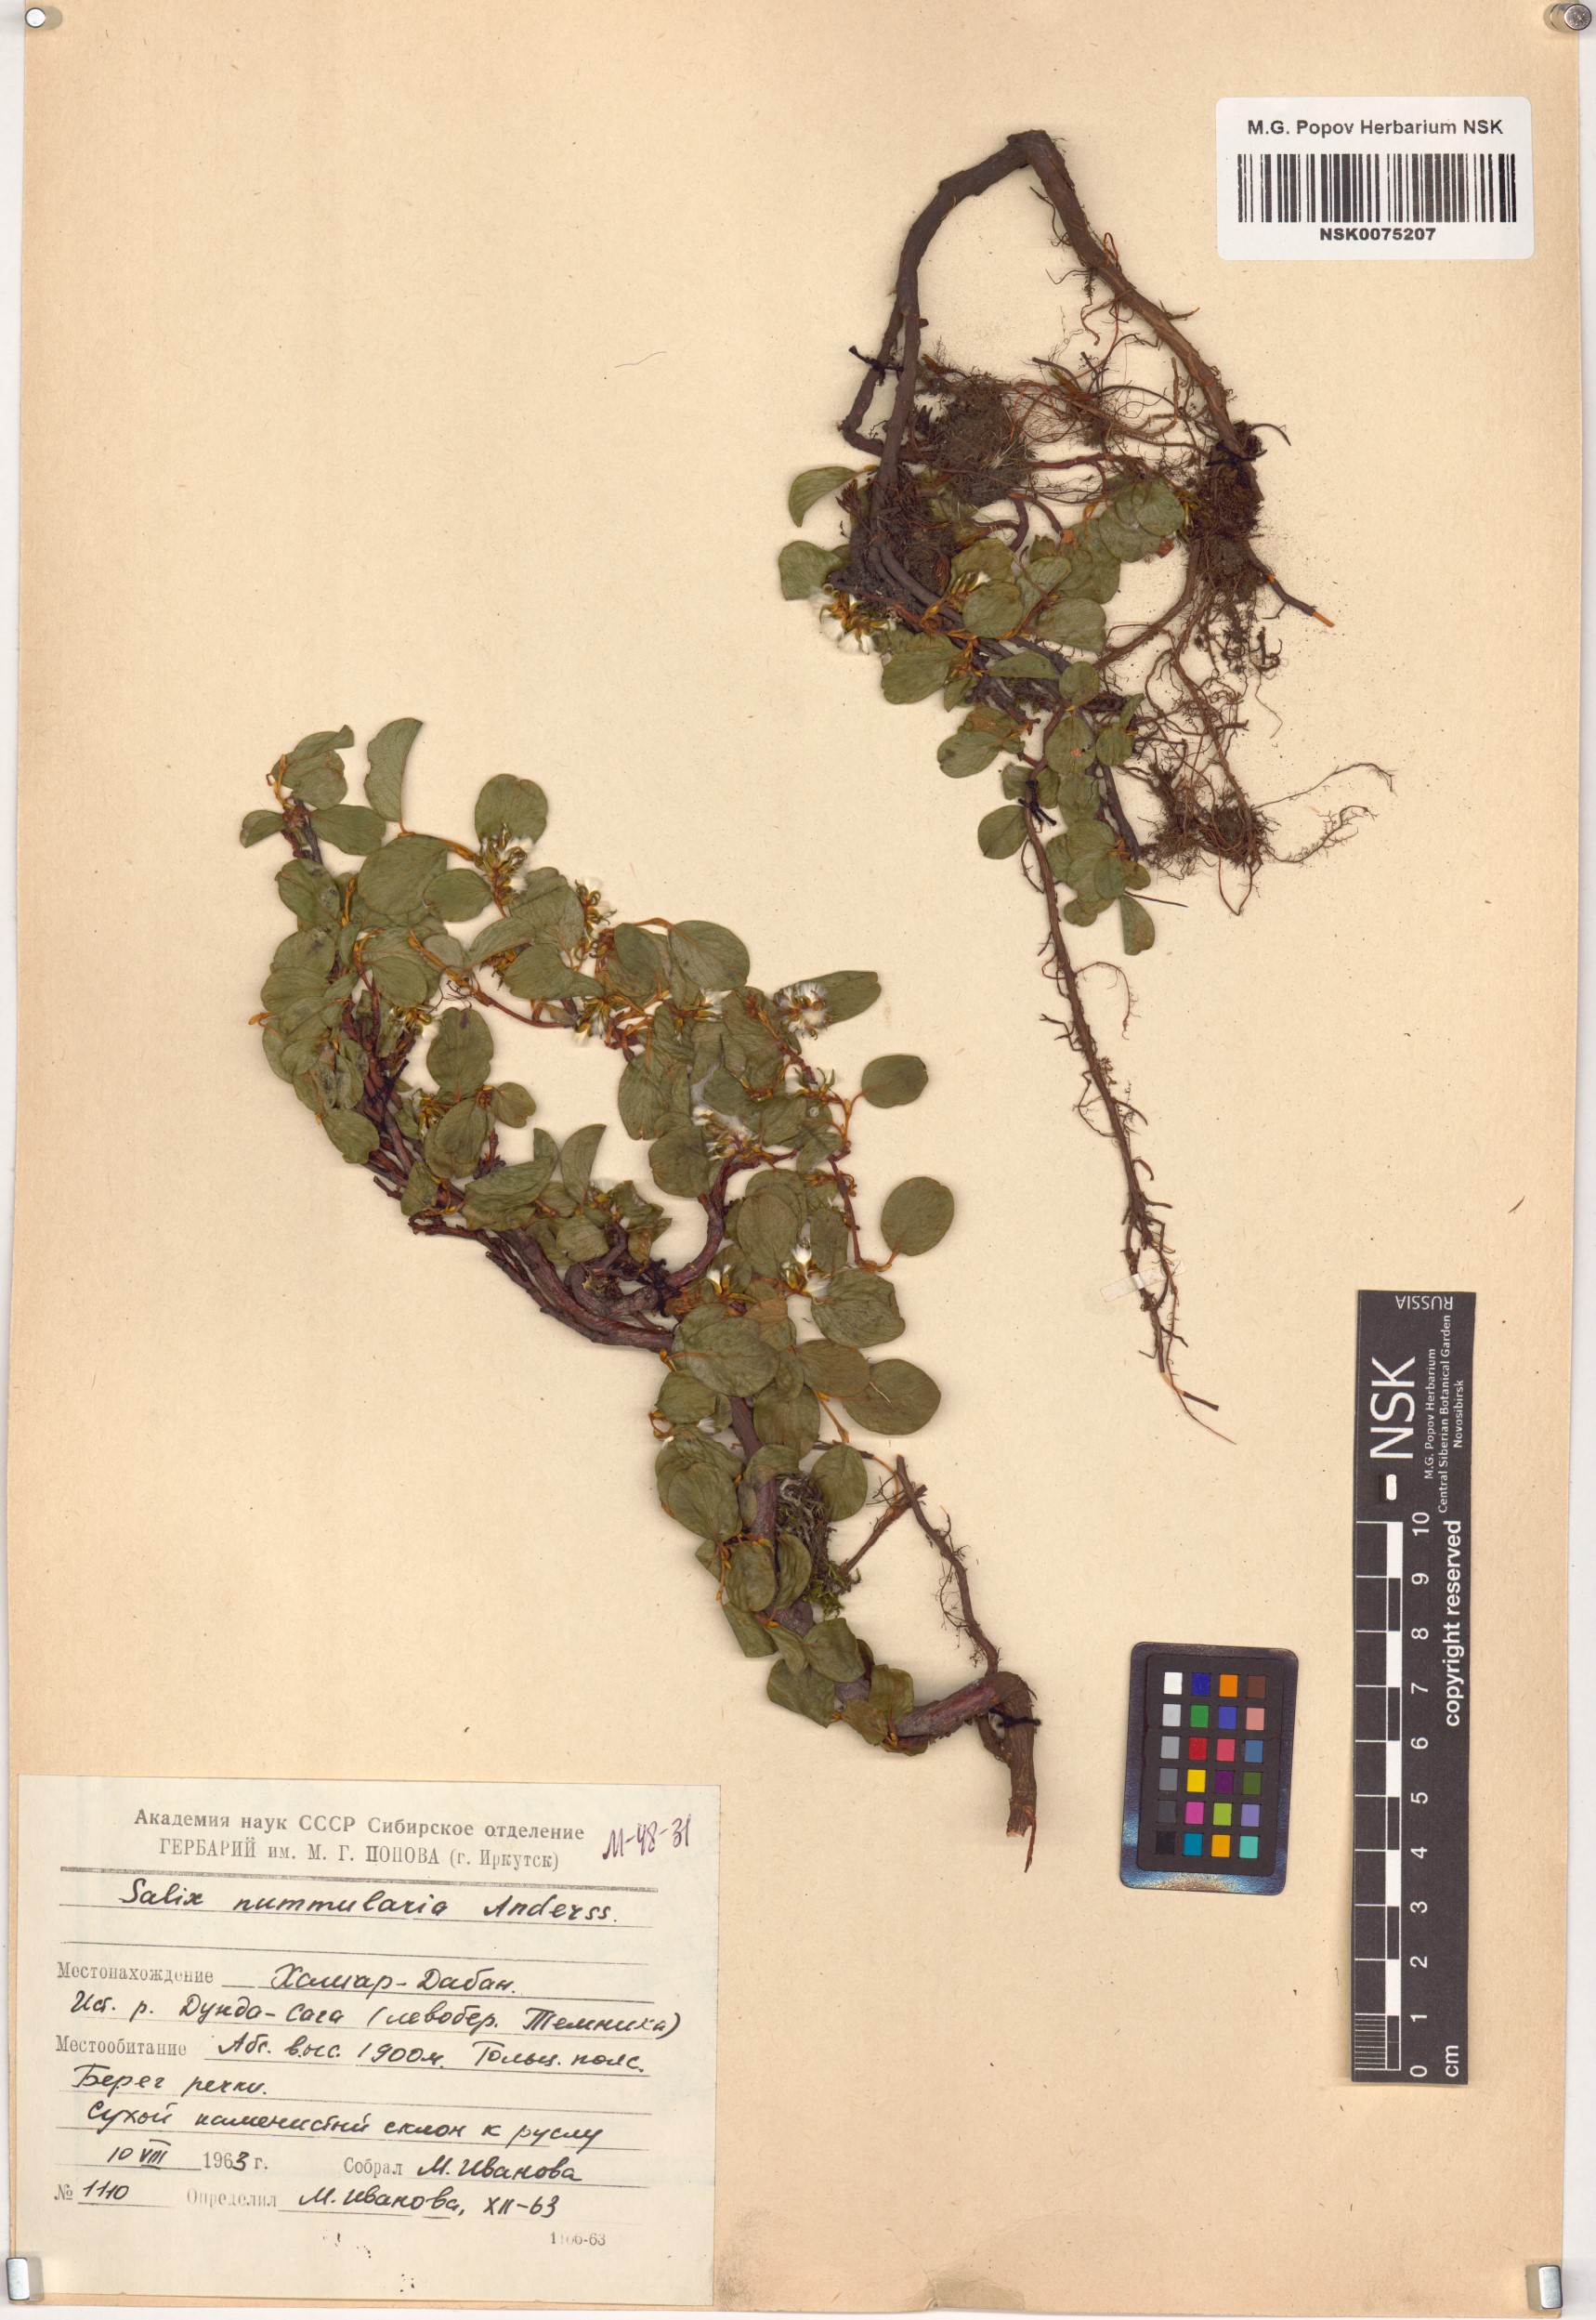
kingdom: Plantae
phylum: Tracheophyta
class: Magnoliopsida
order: Malpighiales
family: Salicaceae
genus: Salix
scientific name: Salix nummularia
